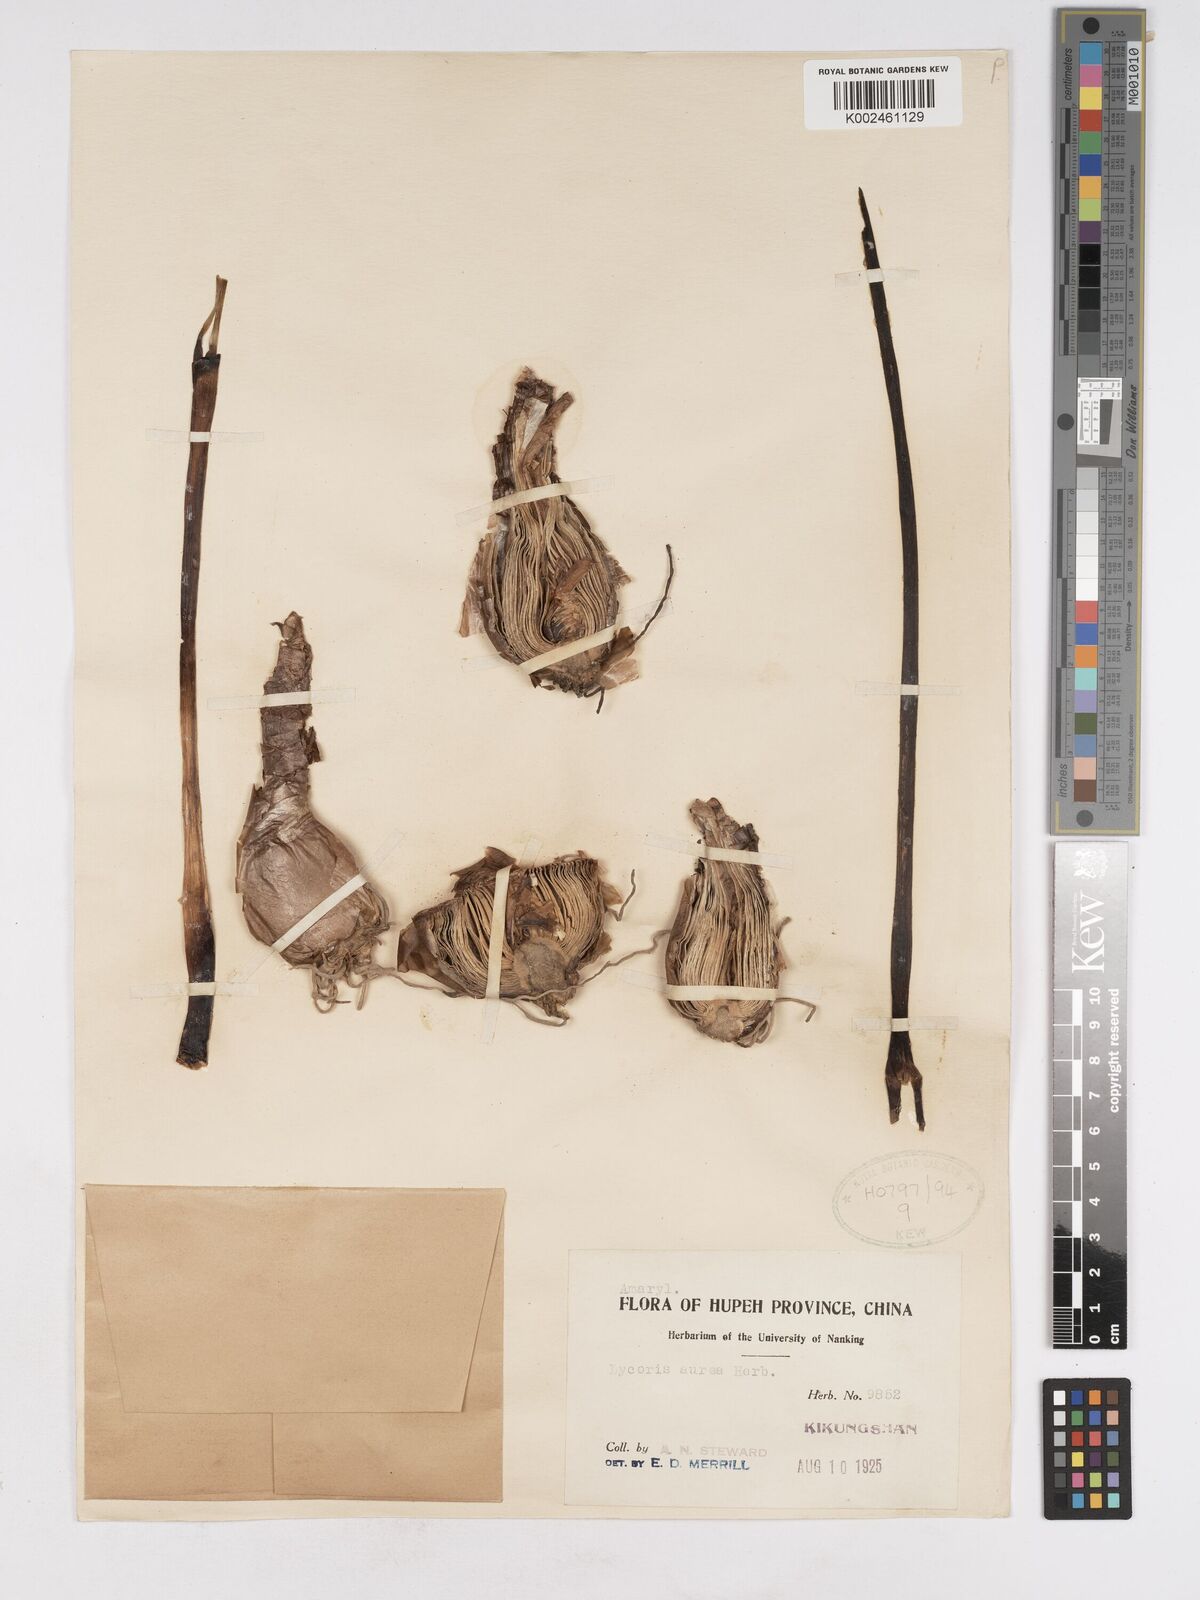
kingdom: Plantae
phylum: Tracheophyta
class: Liliopsida
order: Asparagales
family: Amaryllidaceae
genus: Lycoris
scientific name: Lycoris aurea
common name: Golden hurricane-lily
